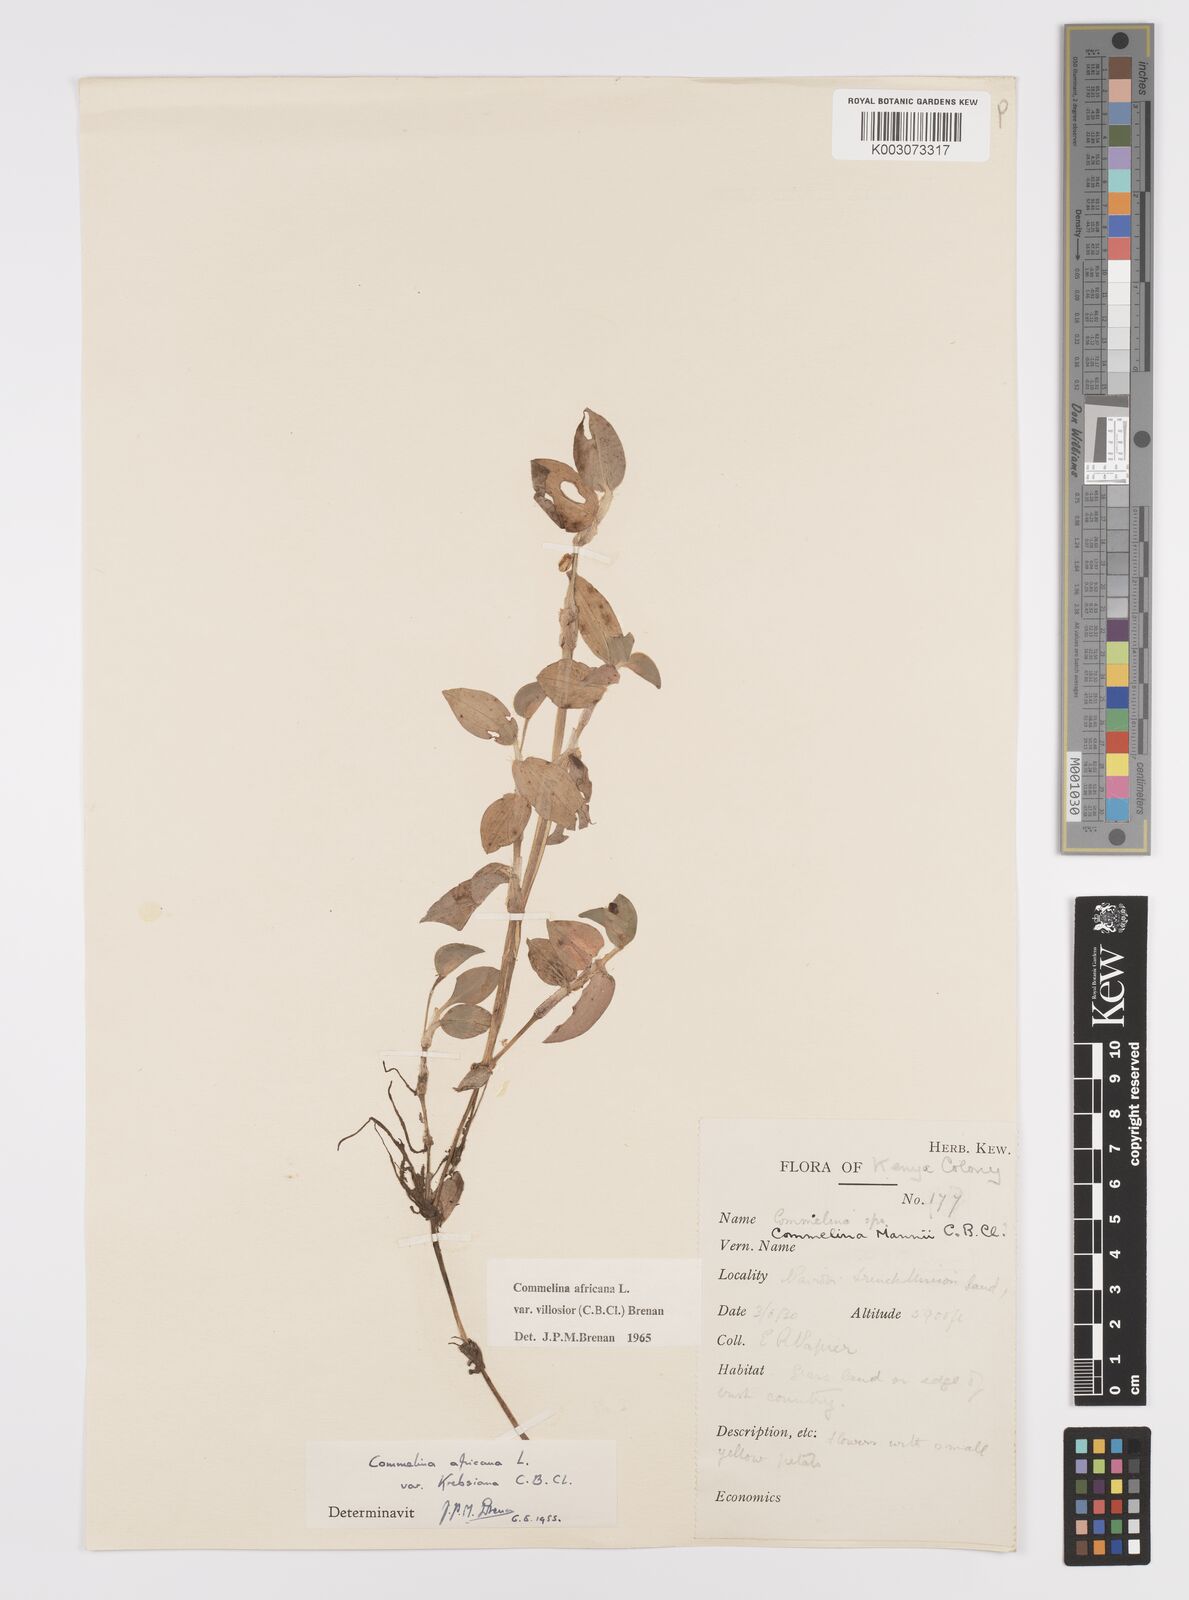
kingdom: Plantae
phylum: Tracheophyta
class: Liliopsida
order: Commelinales
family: Commelinaceae
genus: Commelina
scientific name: Commelina africana
